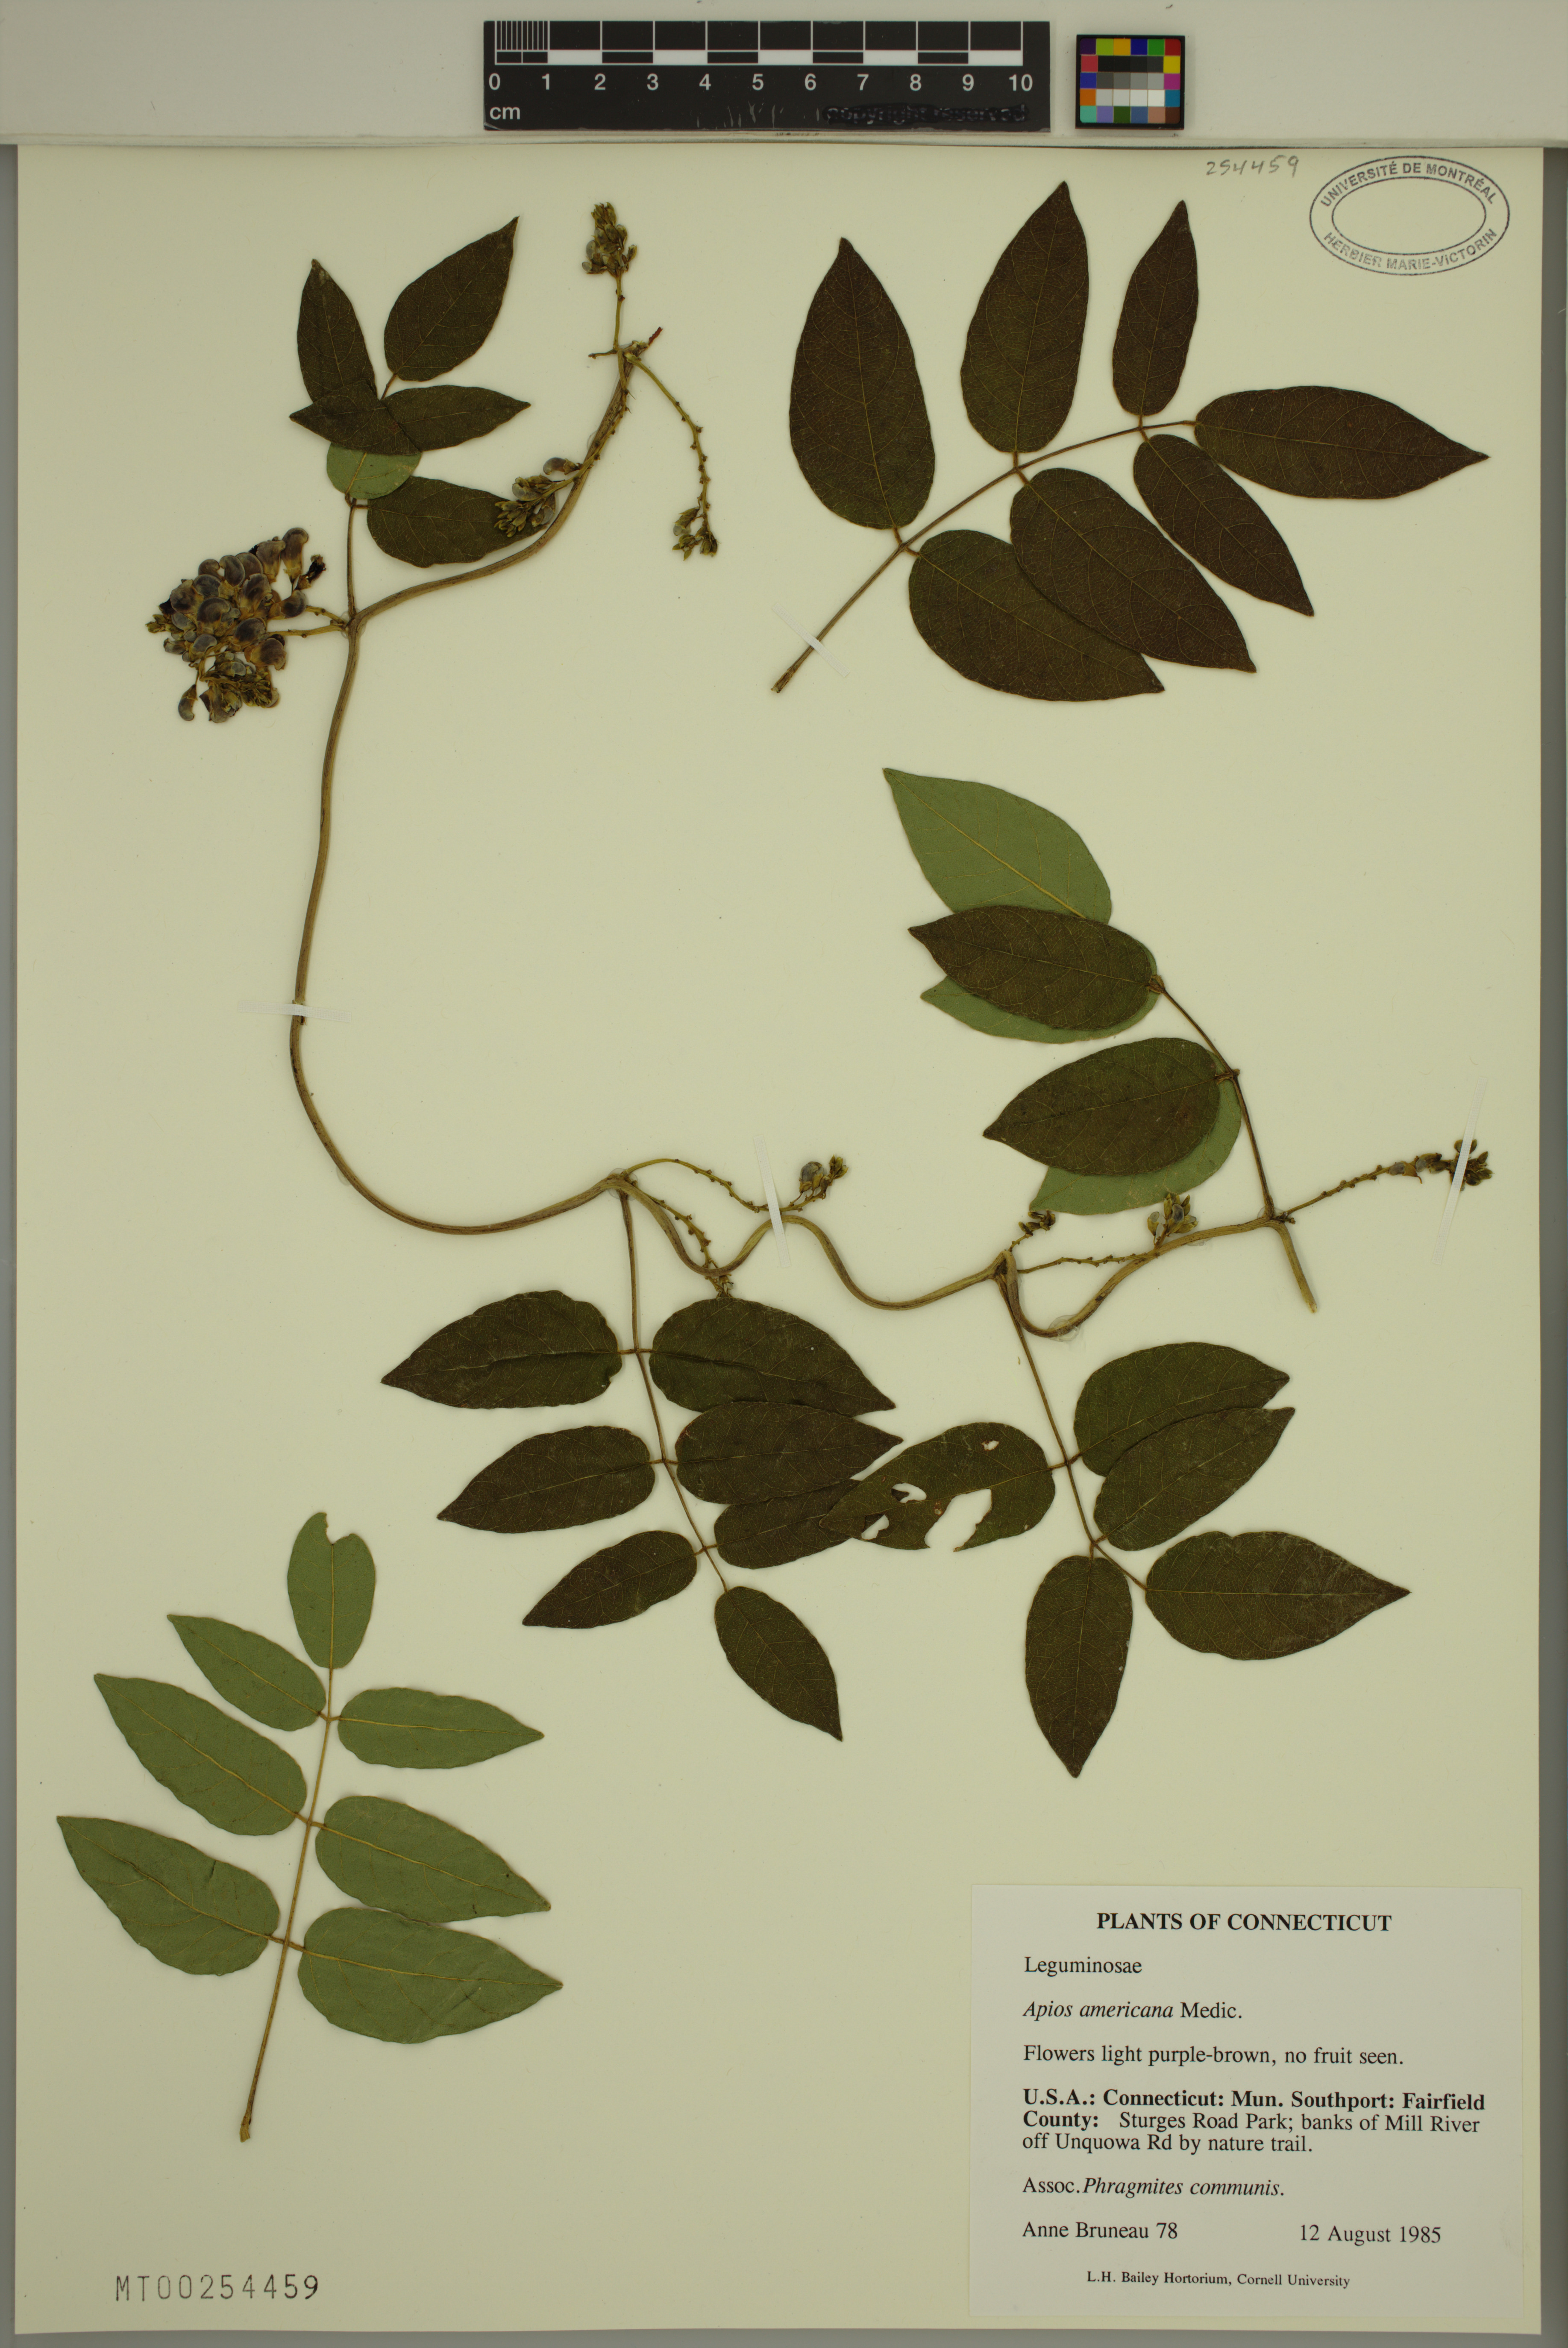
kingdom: Plantae
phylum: Tracheophyta
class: Magnoliopsida
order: Fabales
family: Fabaceae
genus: Apios
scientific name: Apios americana
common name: American potato-bean
